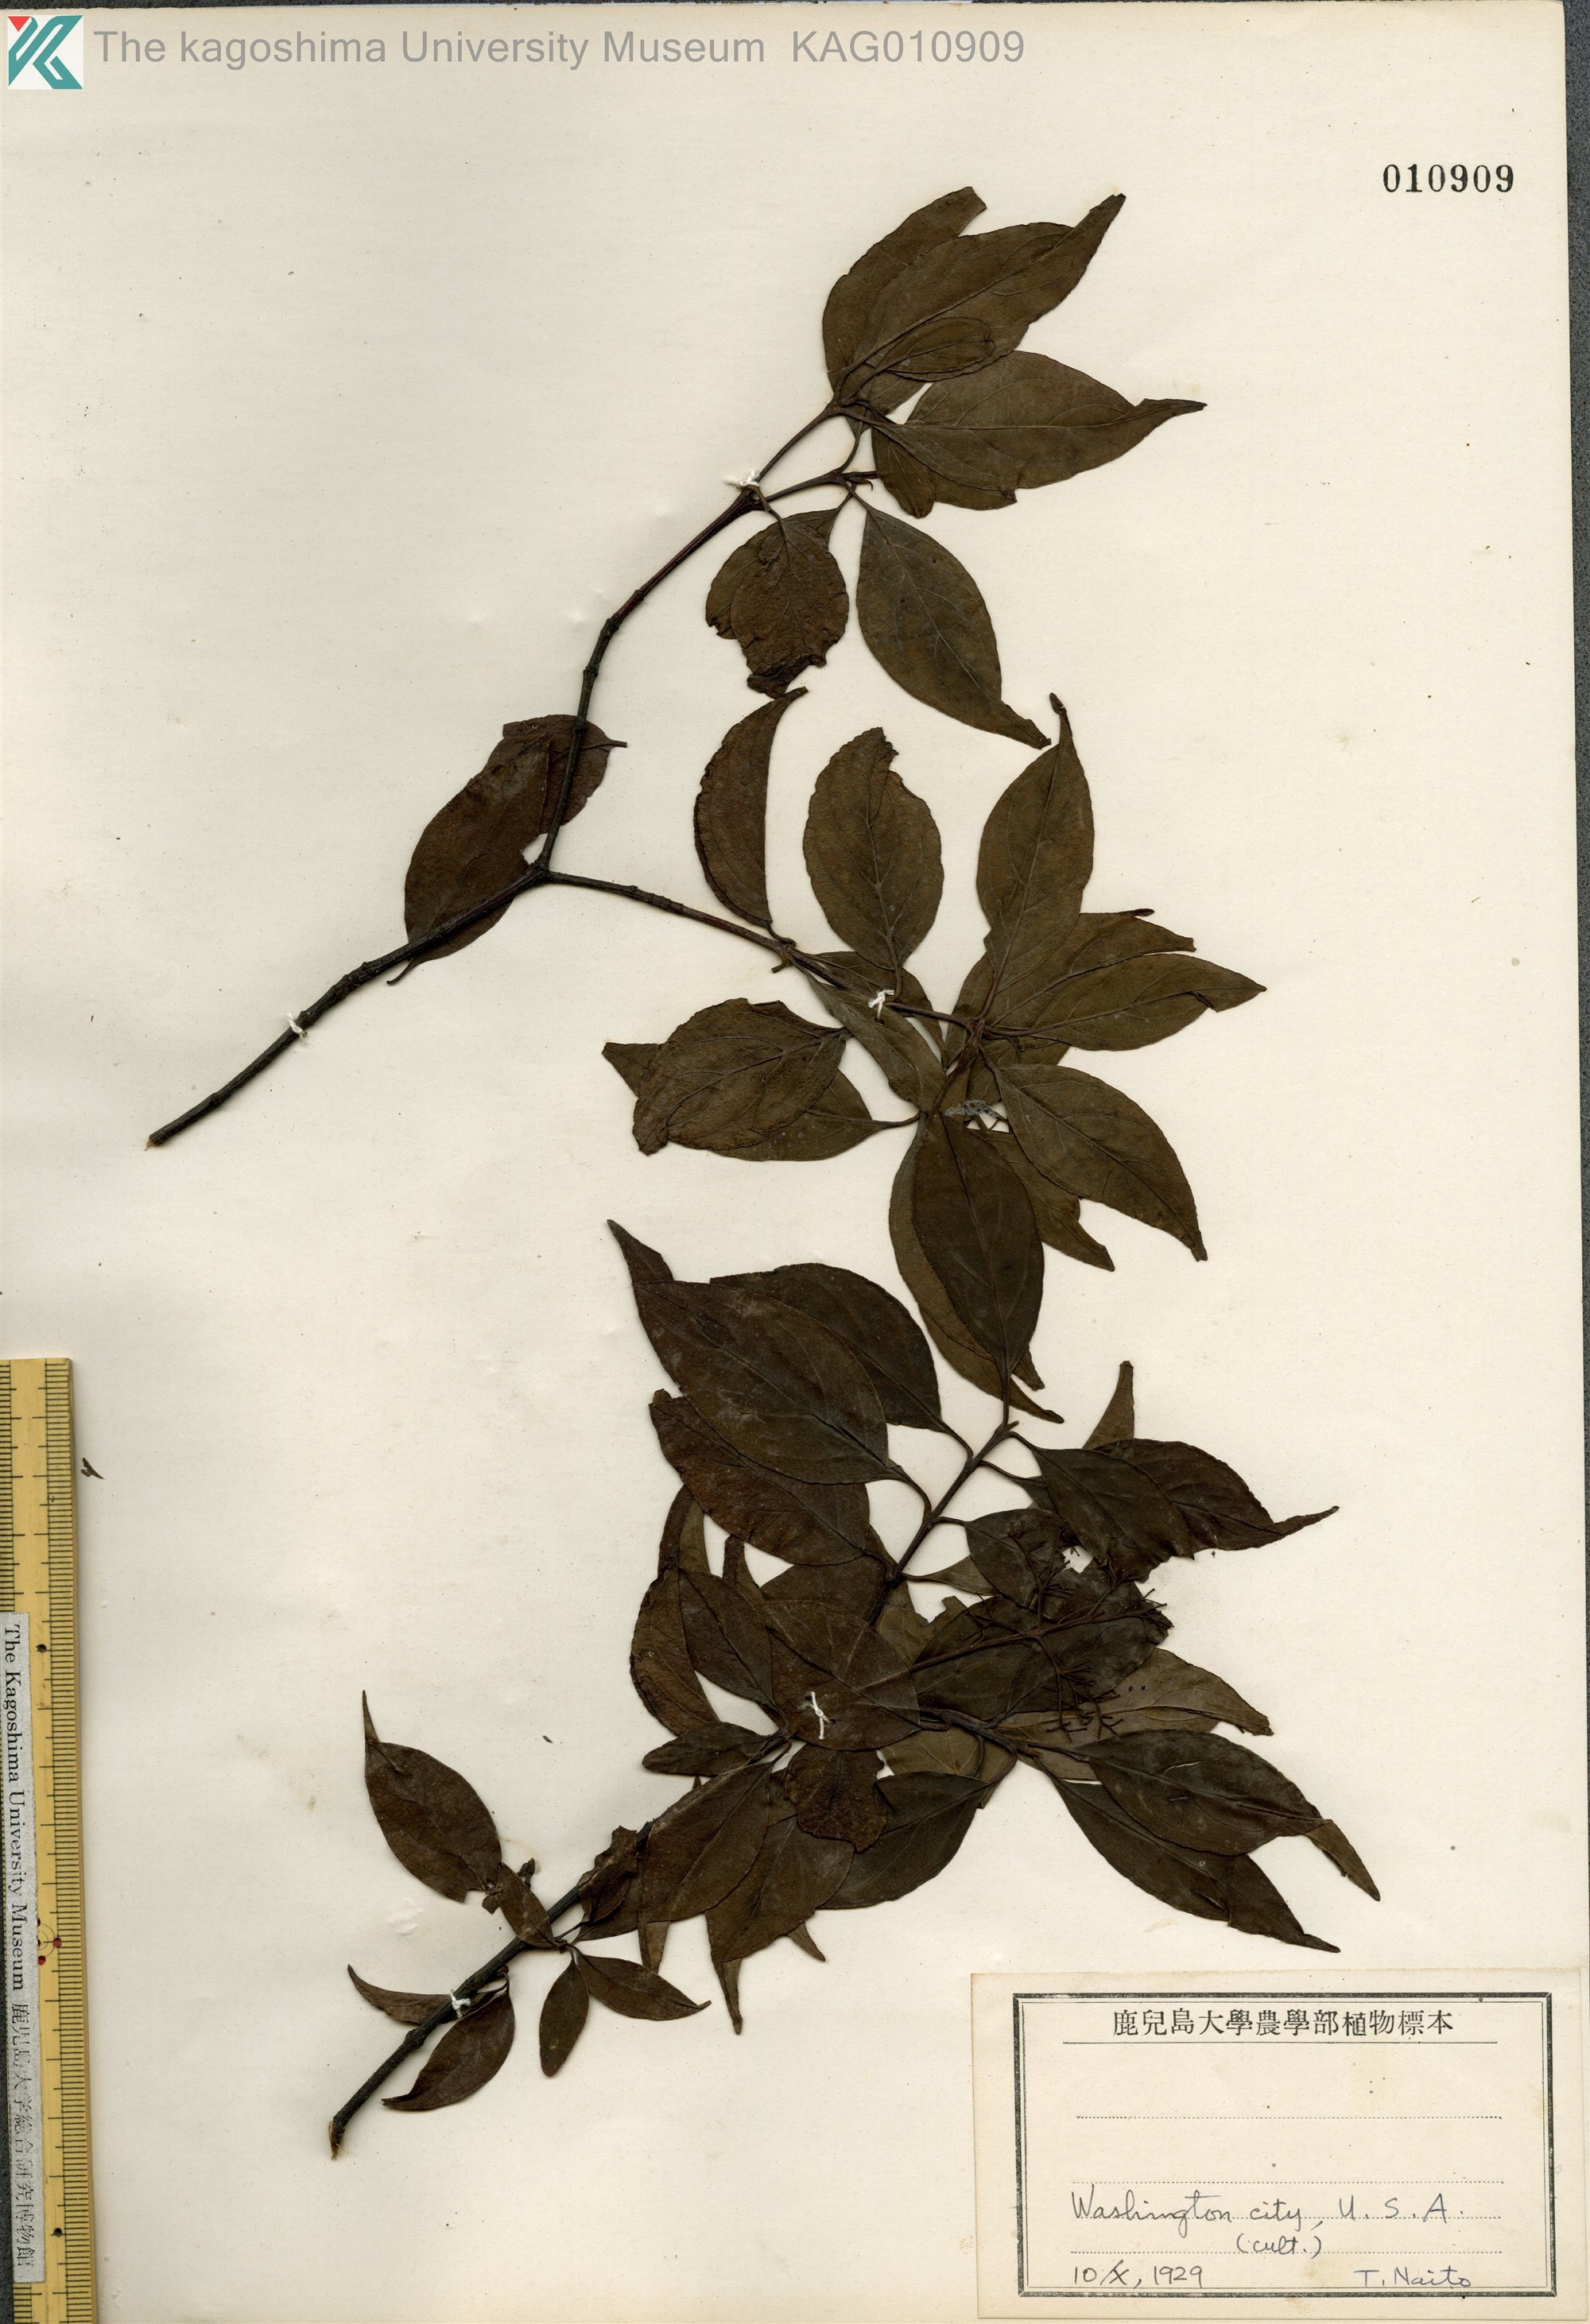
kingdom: Plantae
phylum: Tracheophyta
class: Magnoliopsida
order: Cornales
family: Cornaceae
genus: Cornus
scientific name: Cornus
